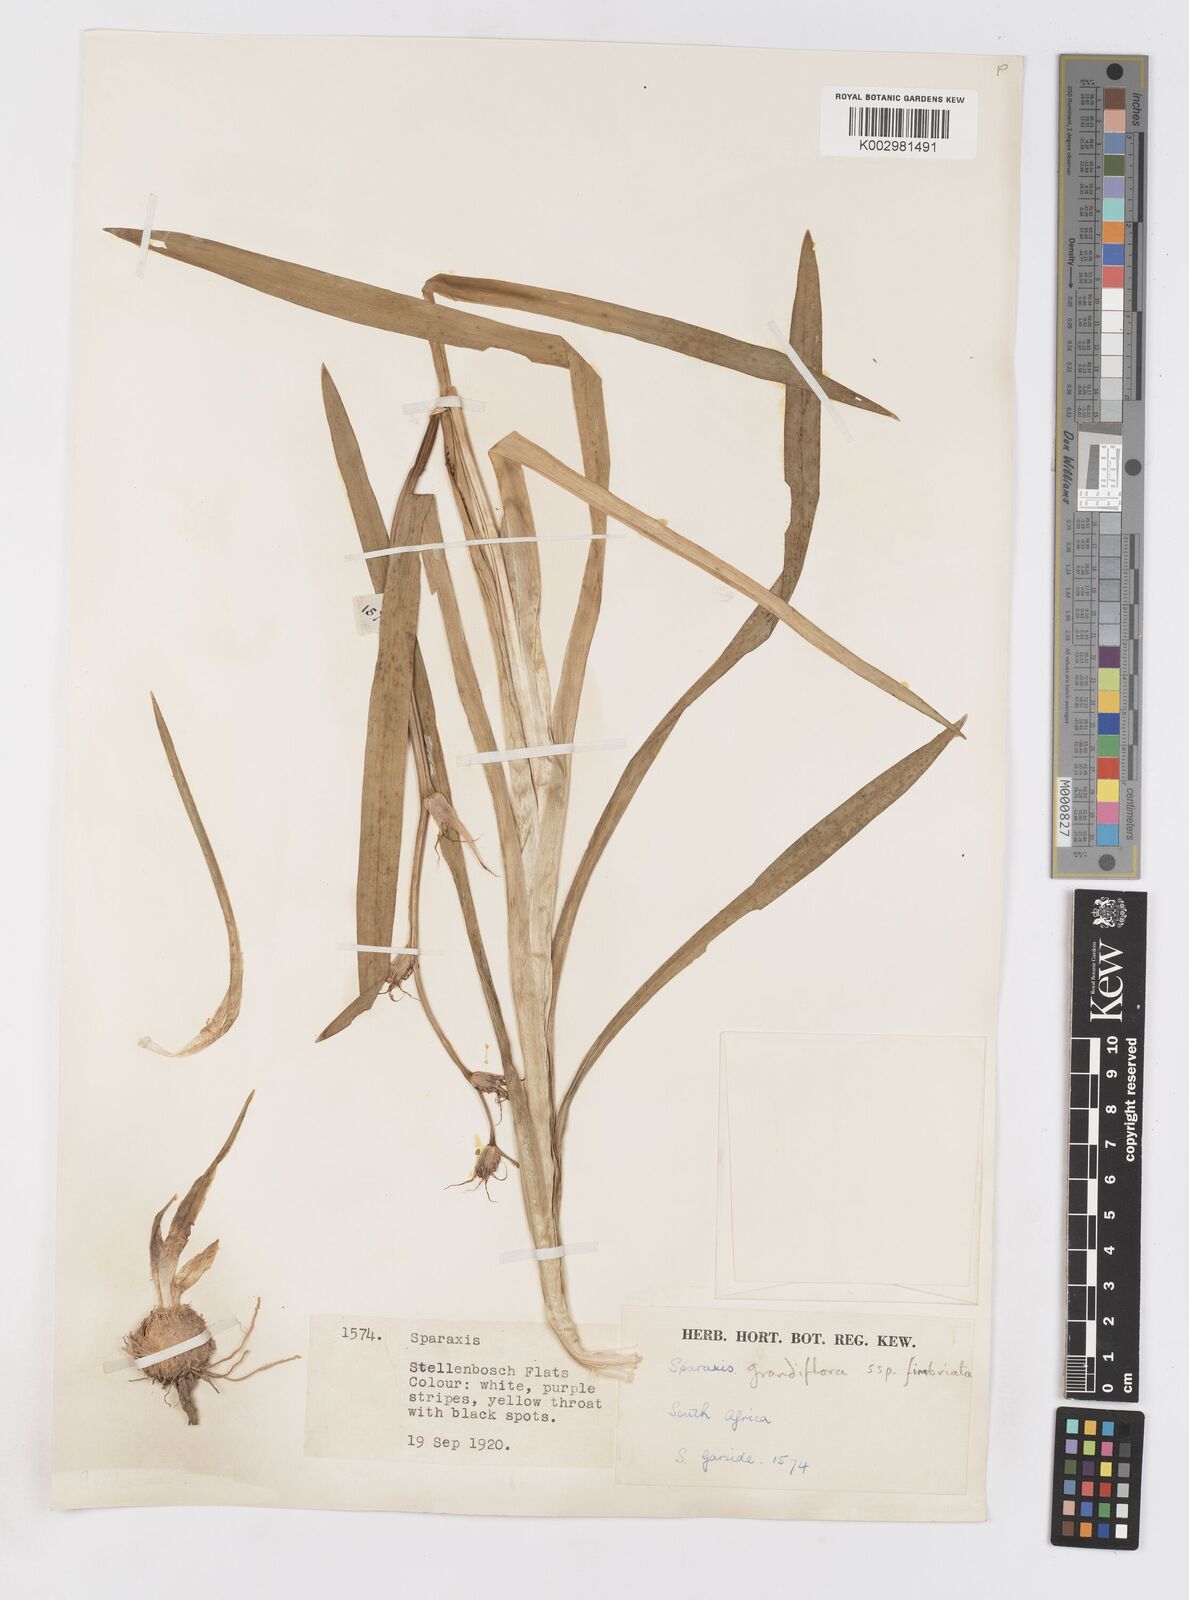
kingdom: Plantae
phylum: Tracheophyta
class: Liliopsida
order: Asparagales
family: Iridaceae
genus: Sparaxis
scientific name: Sparaxis grandiflora
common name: Plain harlequin-flower
